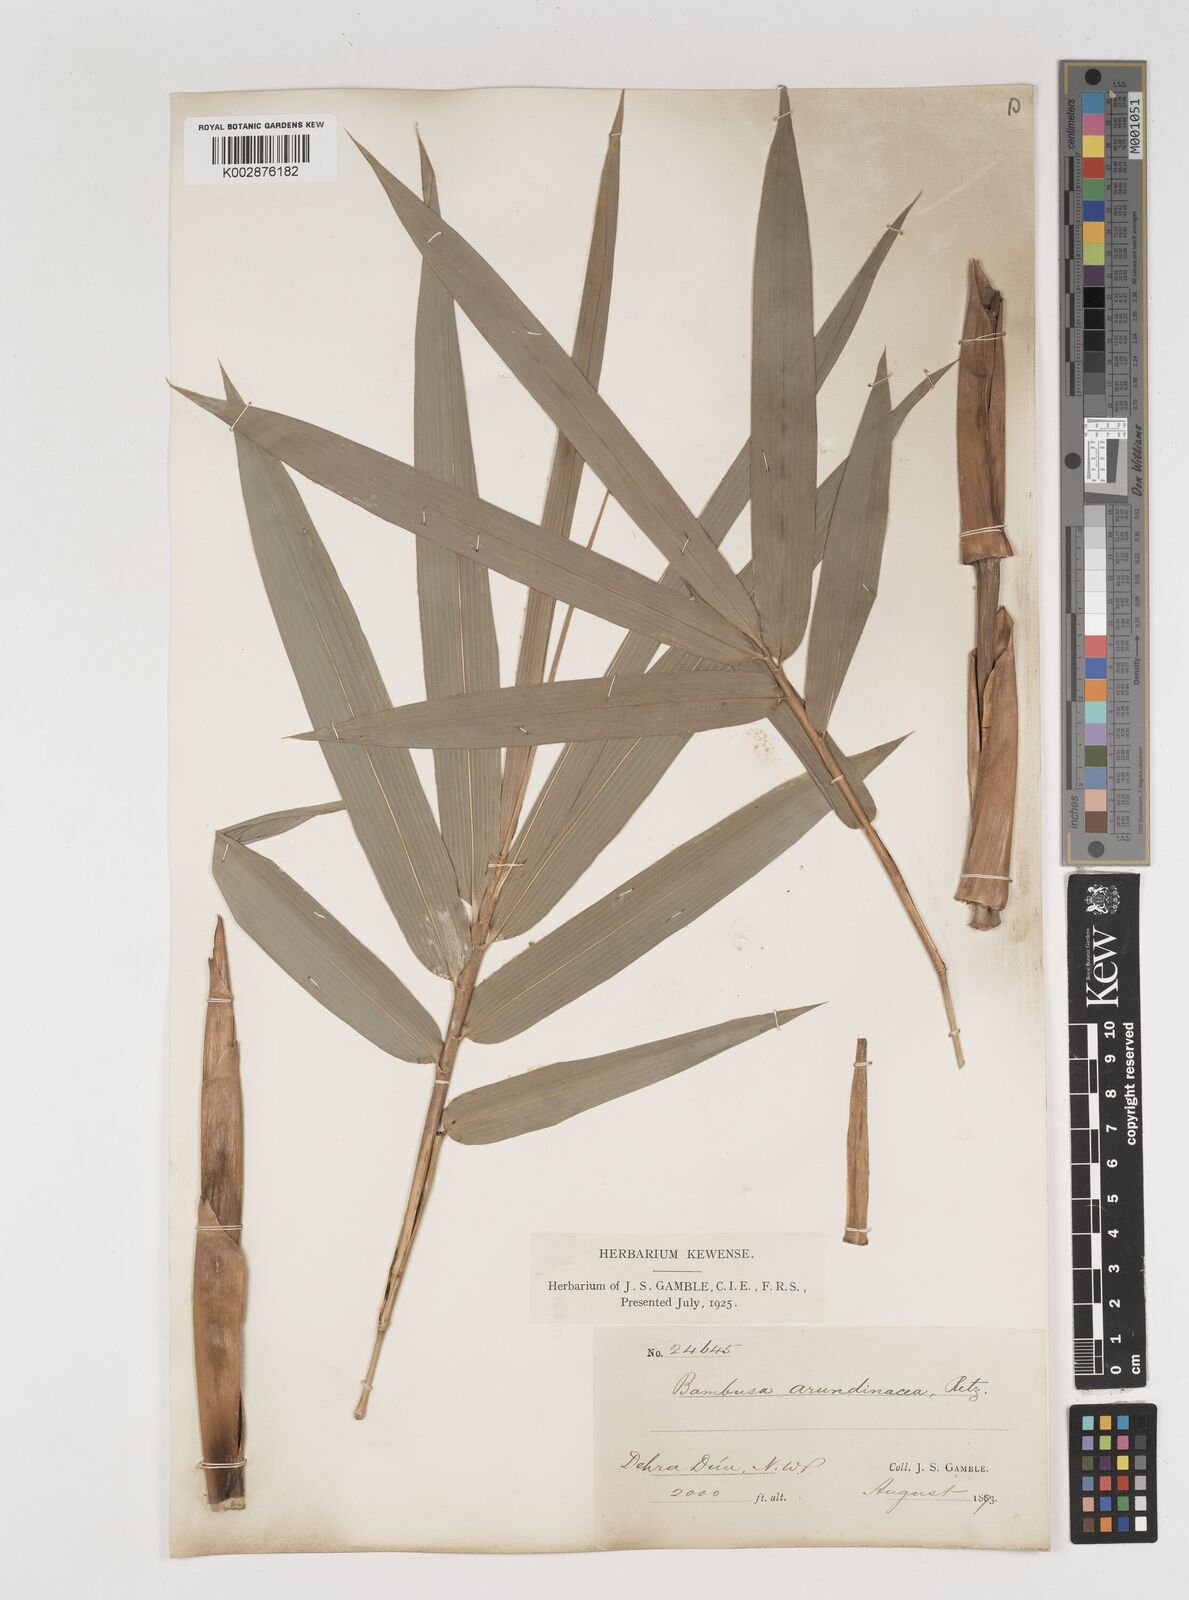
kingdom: Plantae
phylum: Tracheophyta
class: Liliopsida
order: Poales
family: Poaceae
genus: Bambusa
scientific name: Bambusa bambos
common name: Indian thorny bamboo
